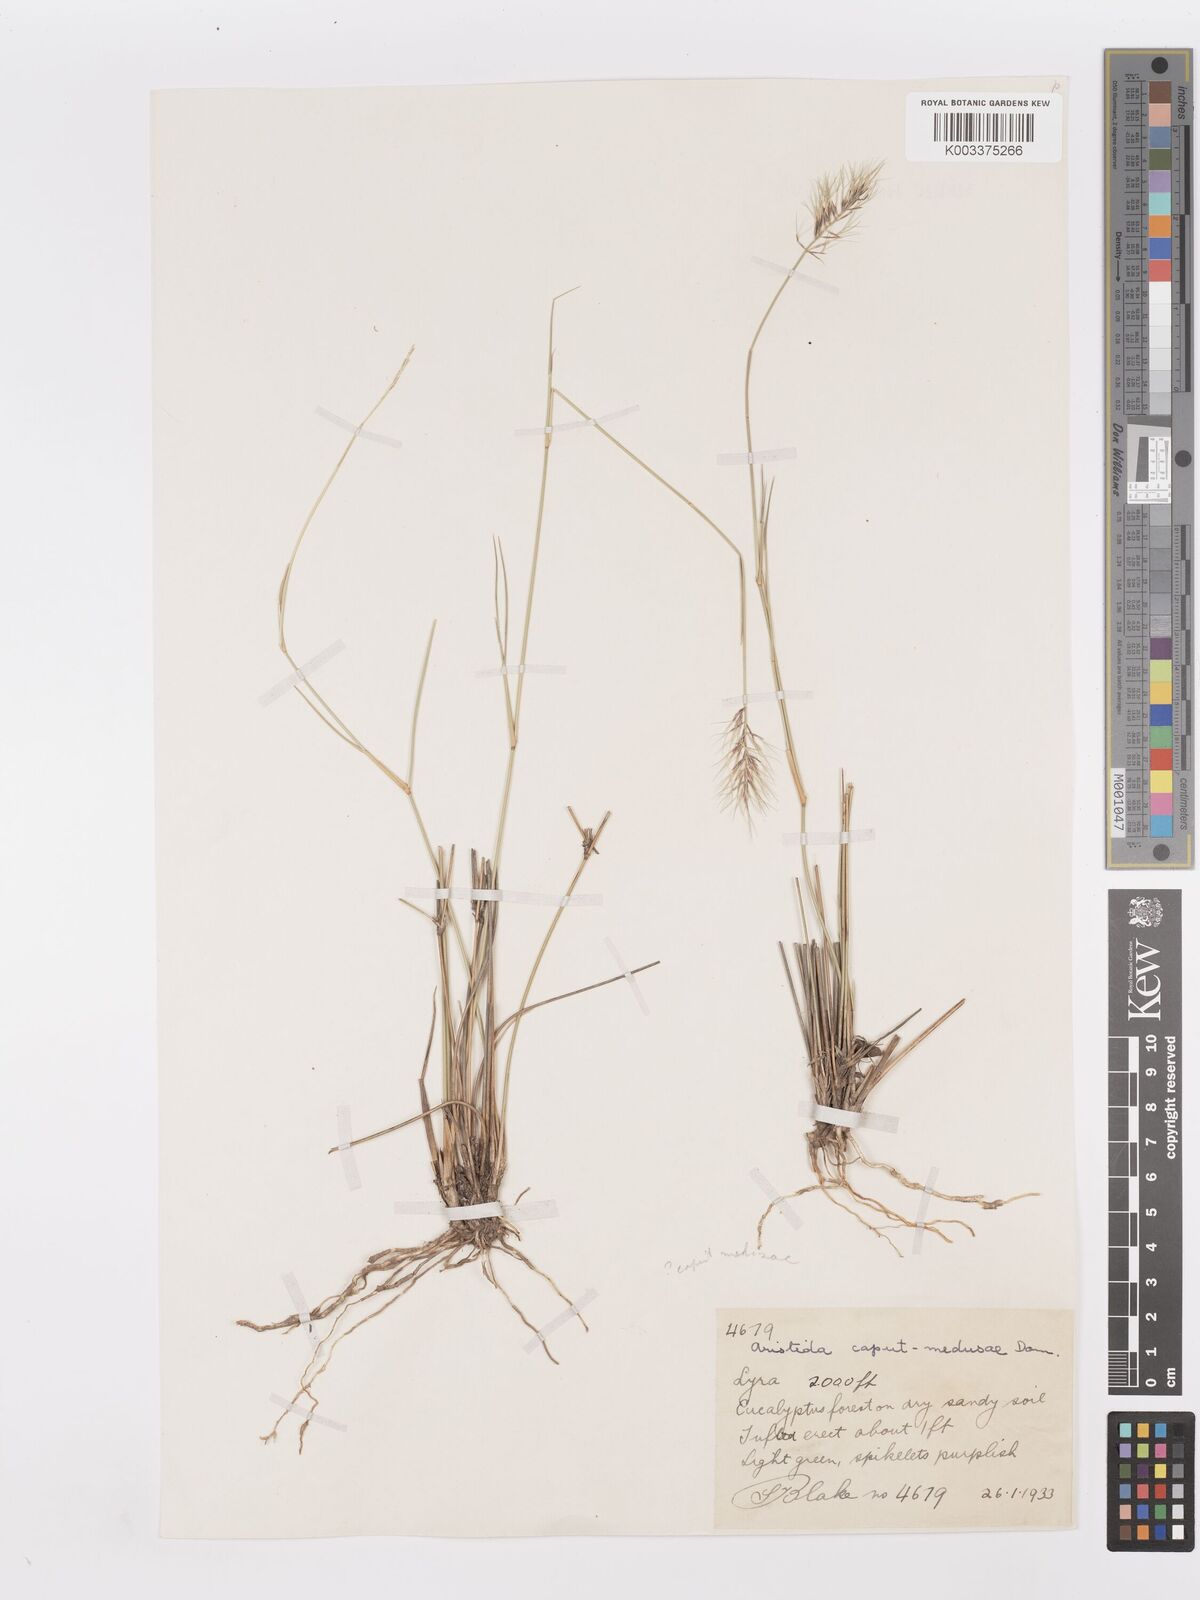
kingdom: Plantae
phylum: Tracheophyta
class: Liliopsida
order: Poales
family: Poaceae
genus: Aristida
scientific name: Aristida caput-medusae
